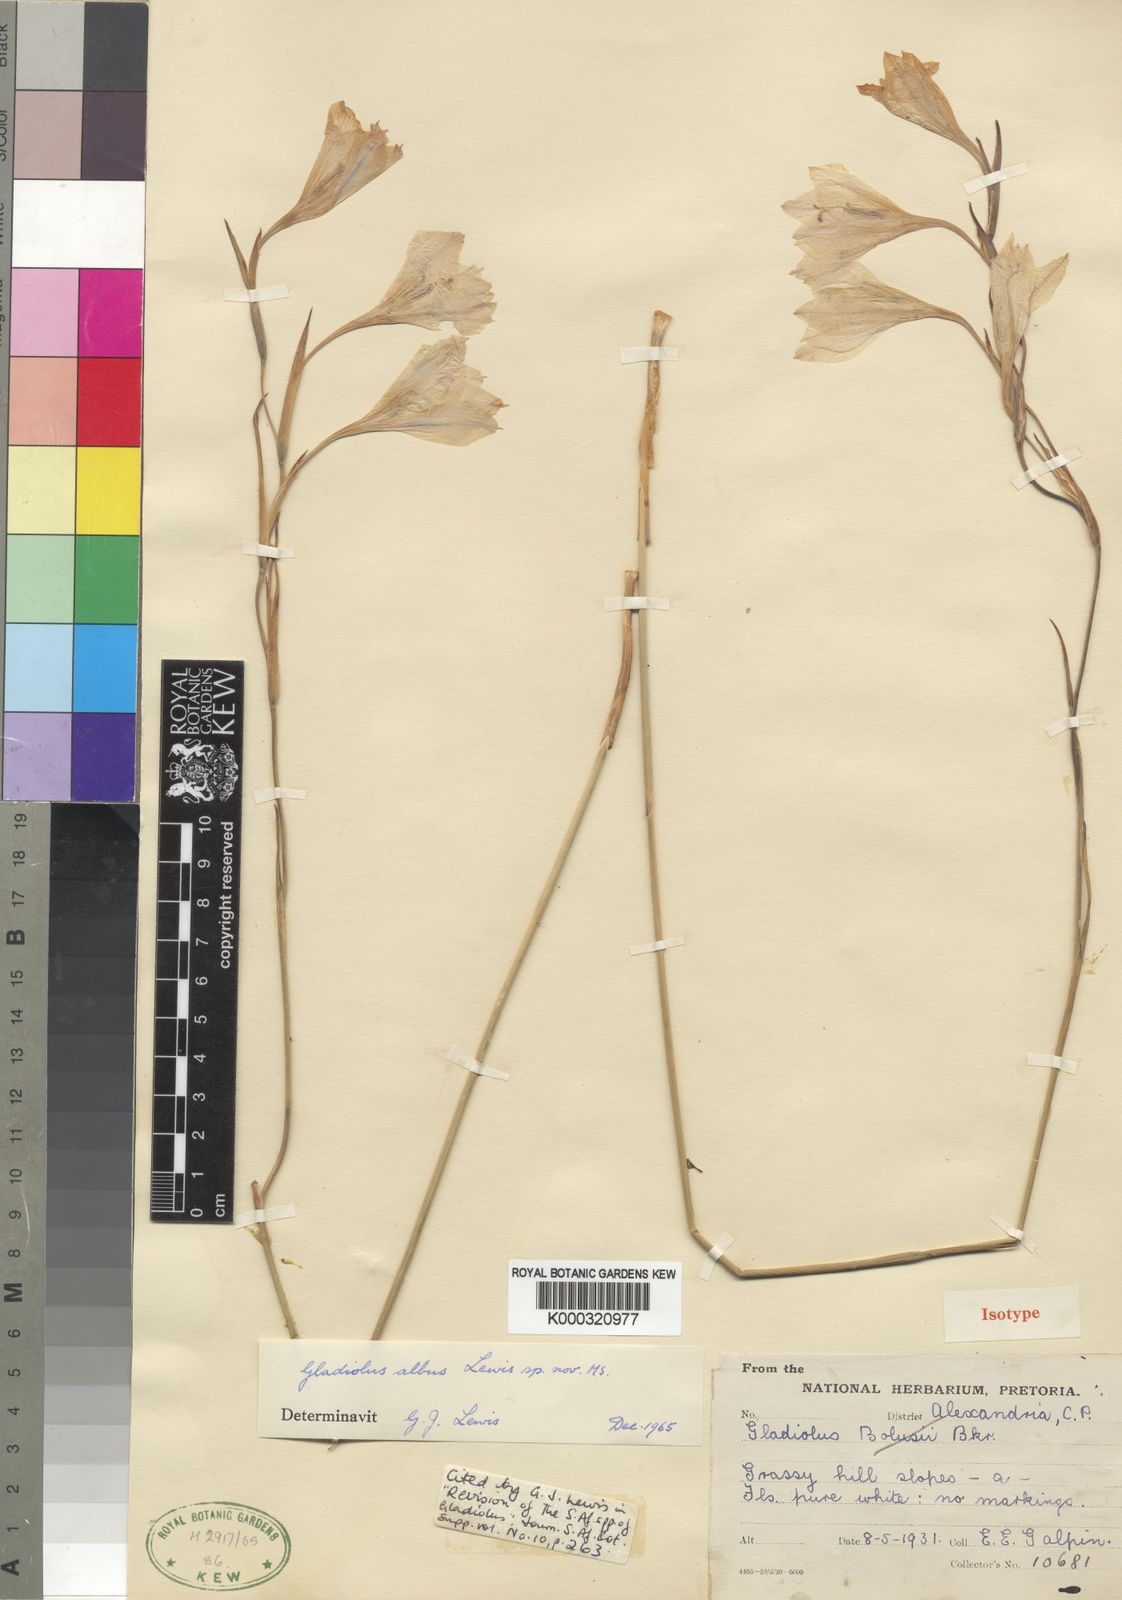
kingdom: Plantae
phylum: Tracheophyta
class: Liliopsida
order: Asparagales
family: Iridaceae
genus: Gladiolus
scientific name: Gladiolus albens
